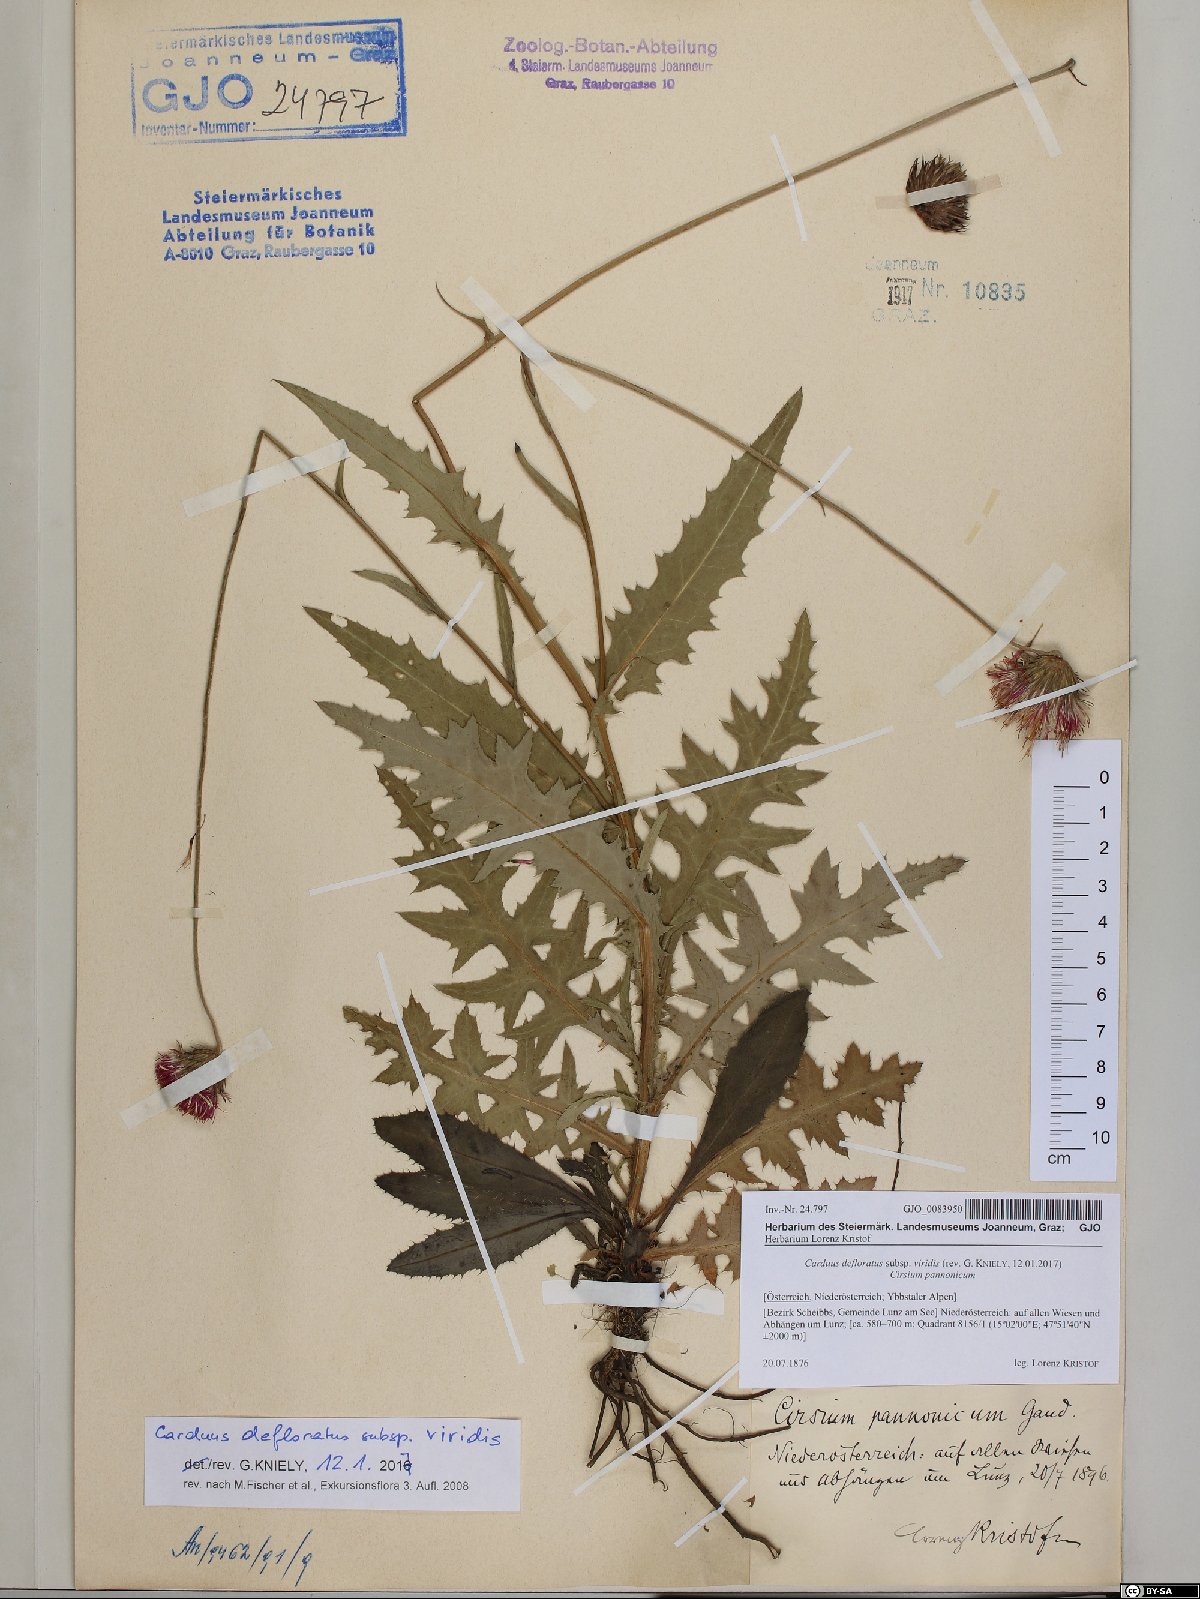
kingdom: Plantae
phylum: Tracheophyta
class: Magnoliopsida
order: Asterales
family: Asteraceae
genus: Carduus
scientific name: Carduus defloratus
